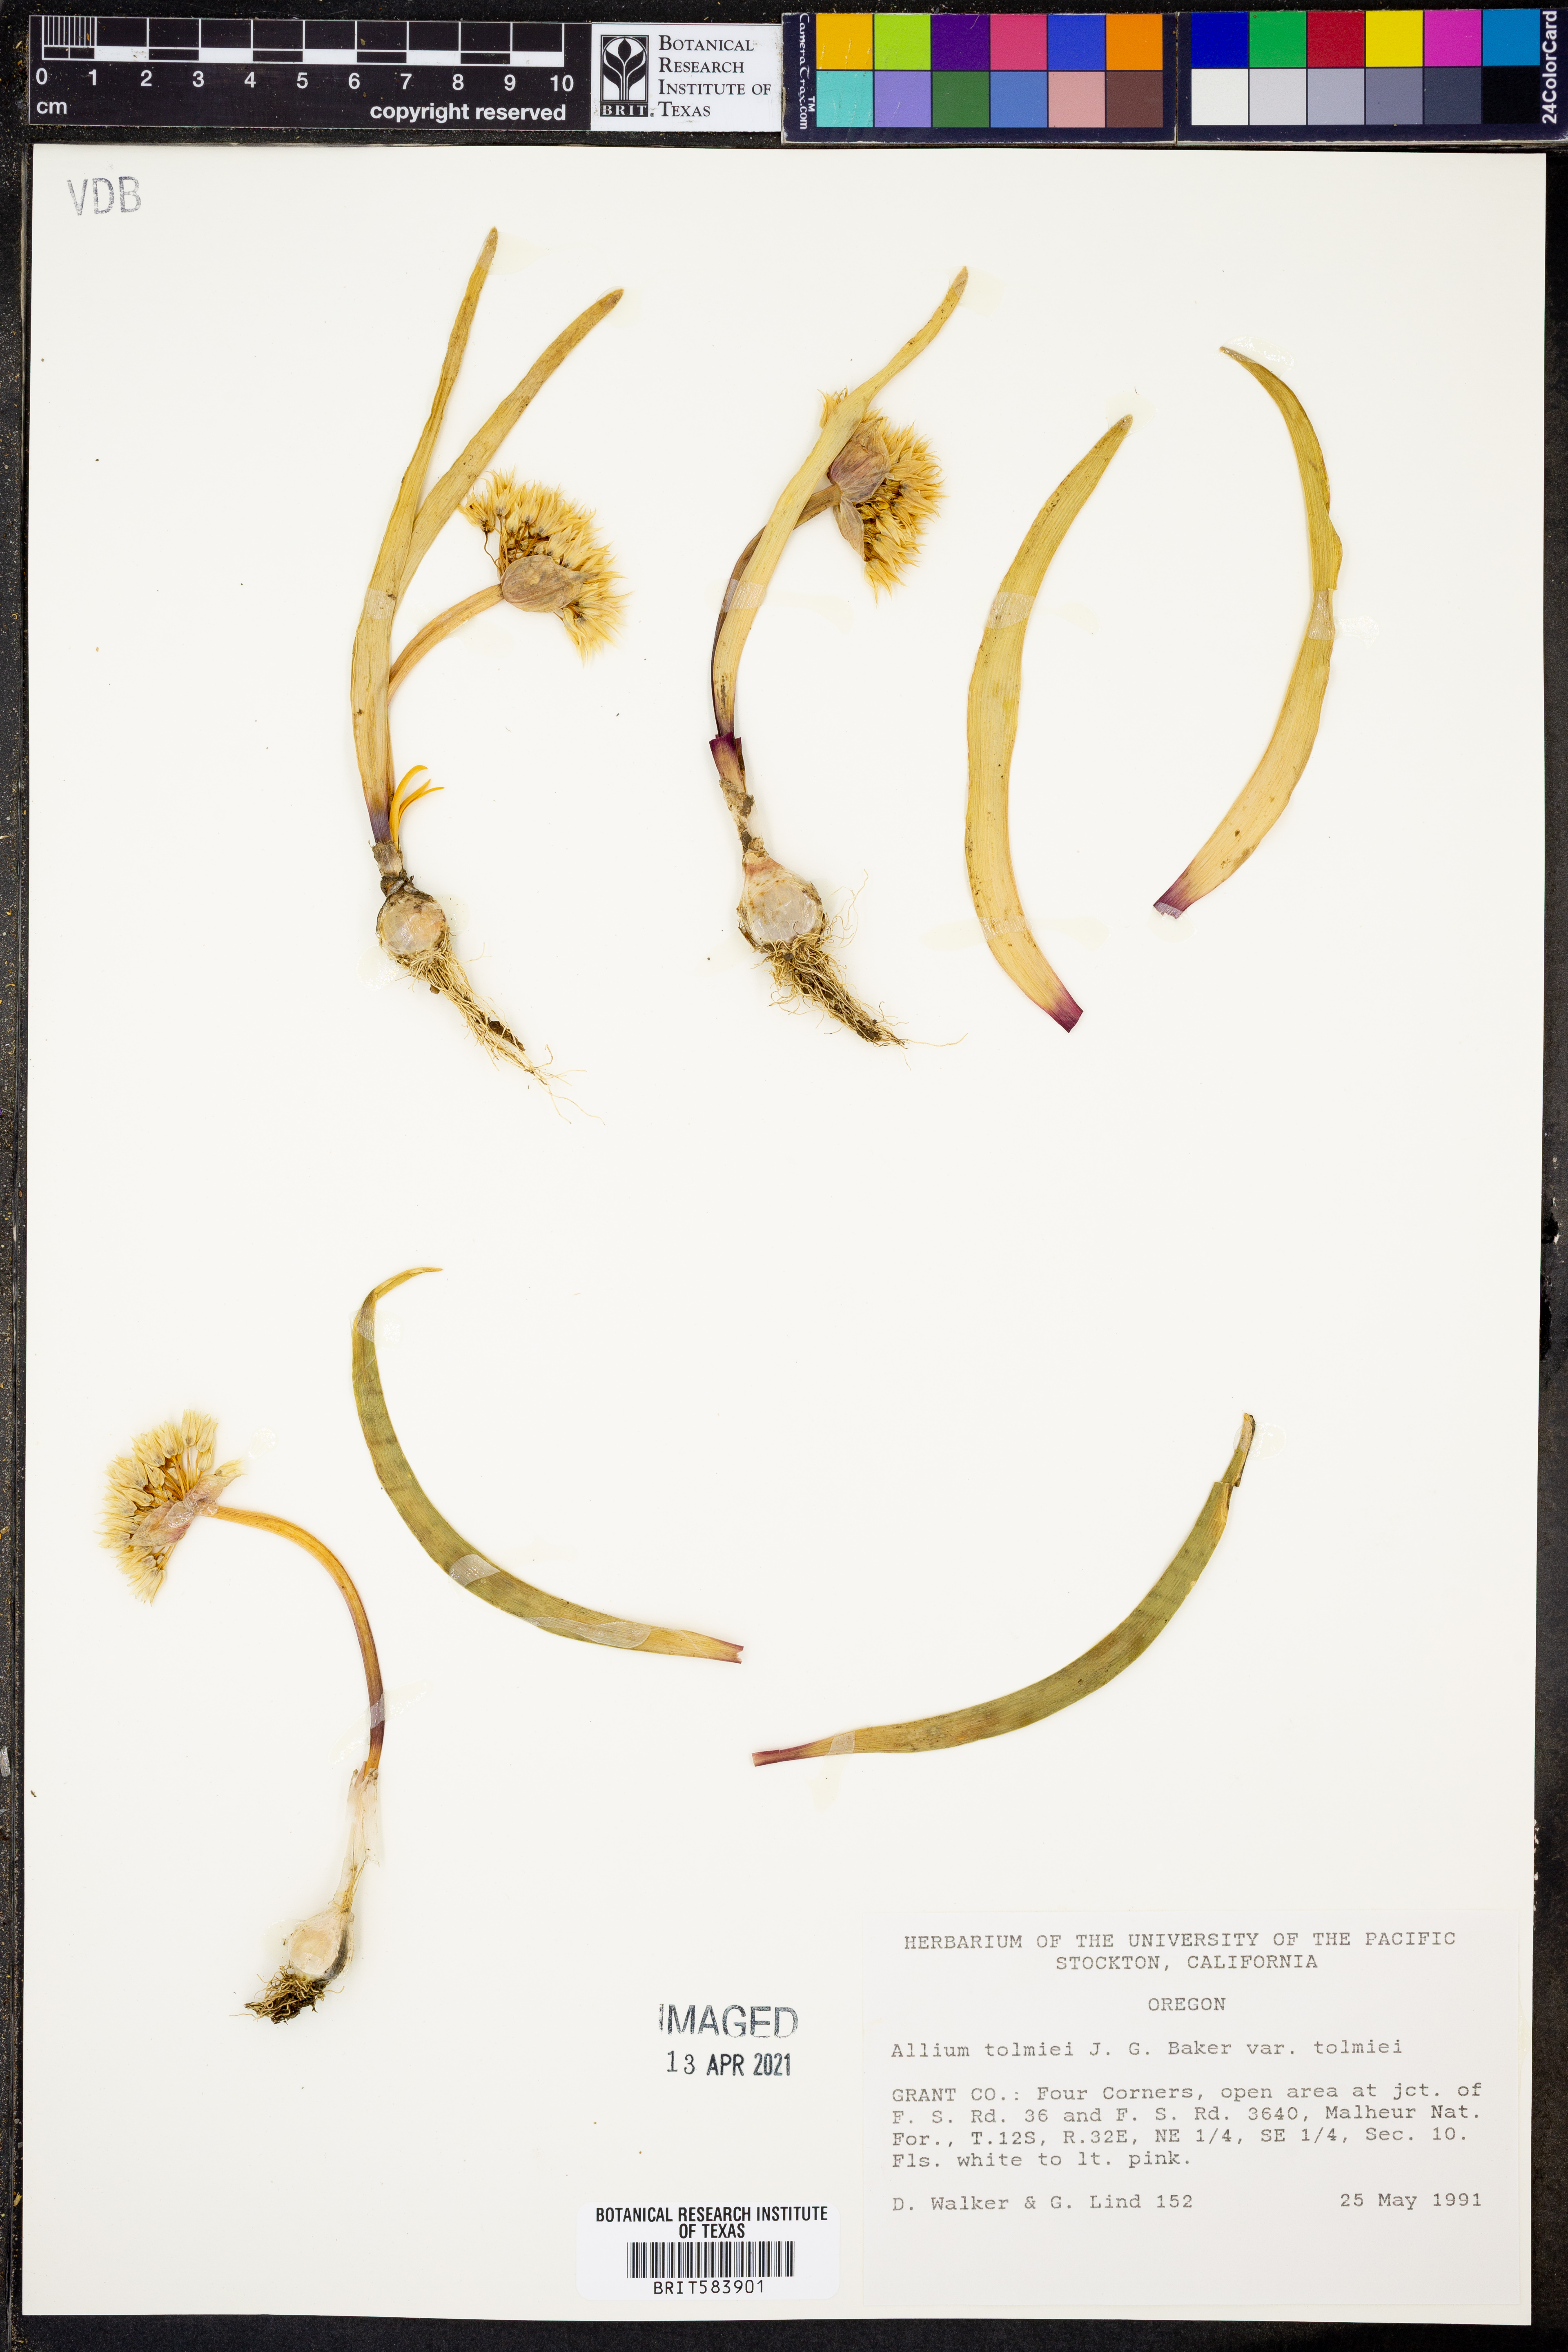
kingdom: Plantae
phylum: Tracheophyta
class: Liliopsida
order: Asparagales
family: Amaryllidaceae
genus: Allium
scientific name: Allium tolmiei
